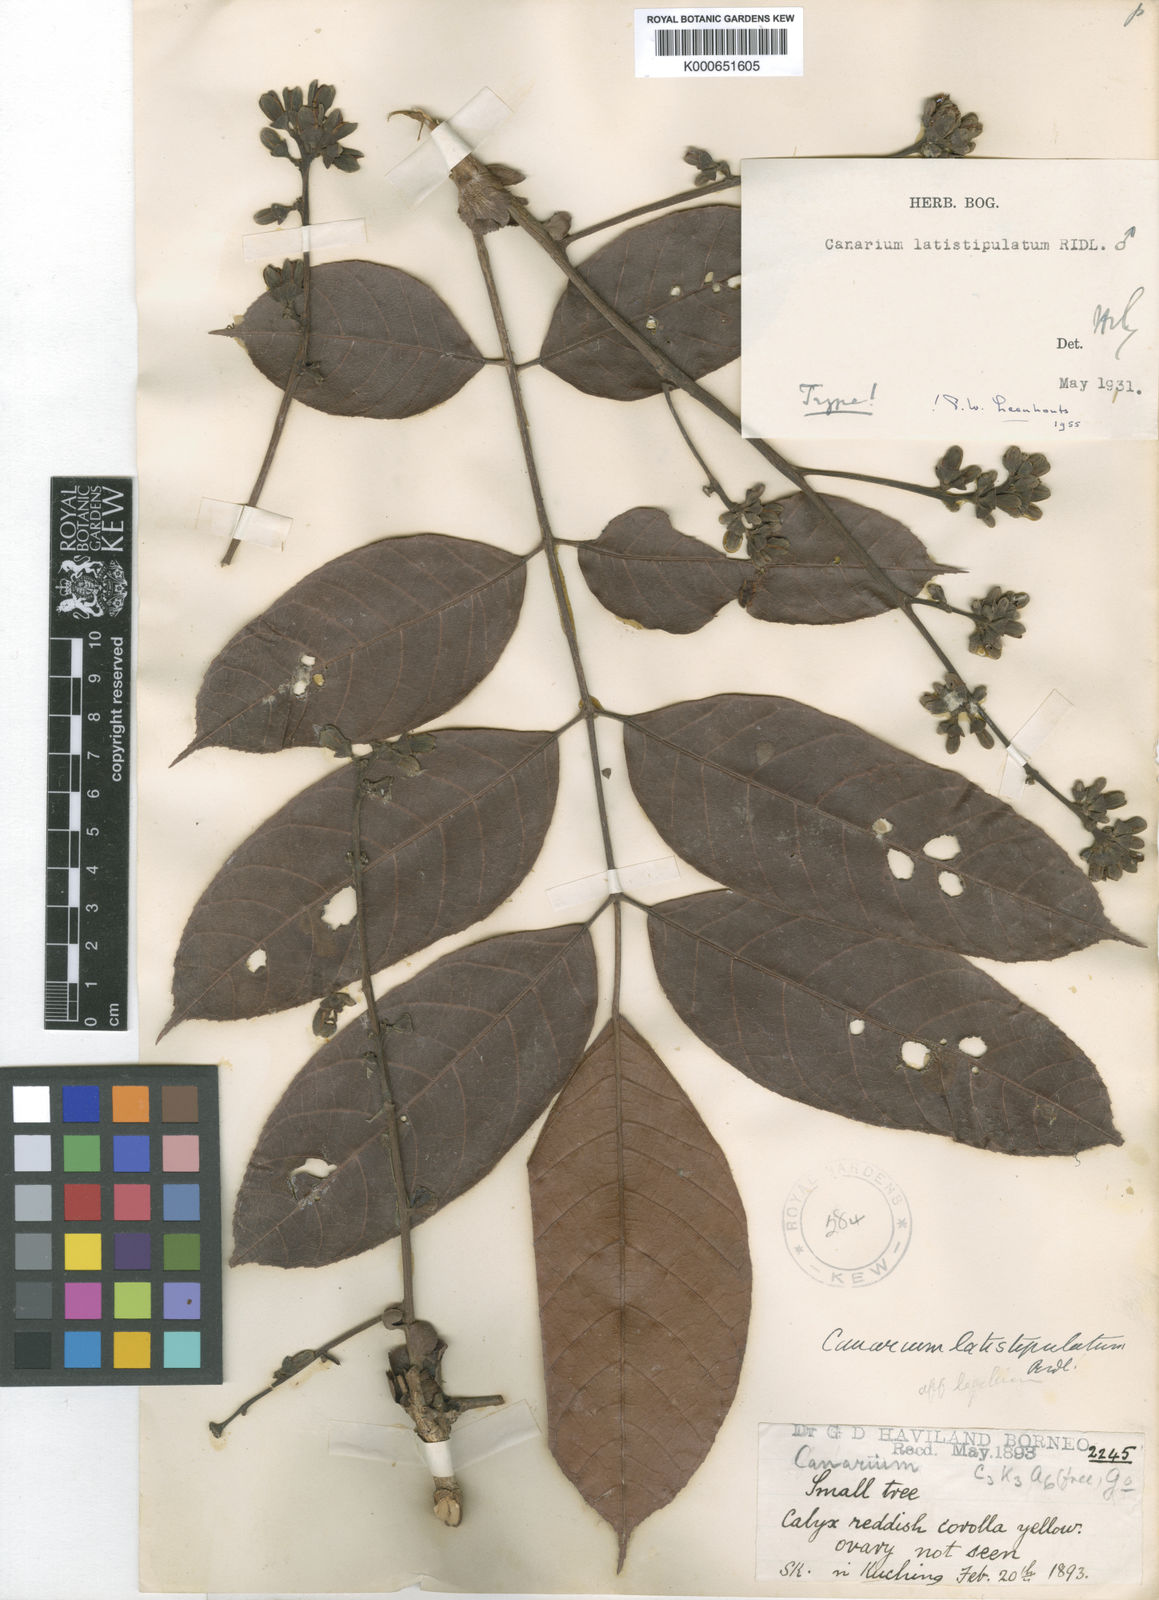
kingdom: Plantae
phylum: Tracheophyta
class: Magnoliopsida
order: Sapindales
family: Burseraceae
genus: Canarium
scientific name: Canarium latistipulatum
